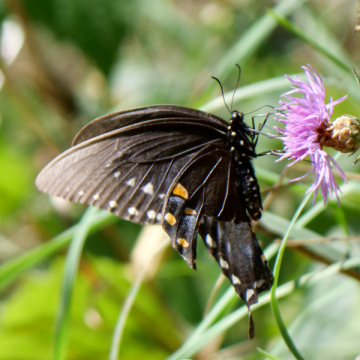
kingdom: Animalia
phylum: Arthropoda
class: Insecta
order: Lepidoptera
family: Papilionidae
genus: Pterourus
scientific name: Pterourus troilus
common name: Spicebush Swallowtail
